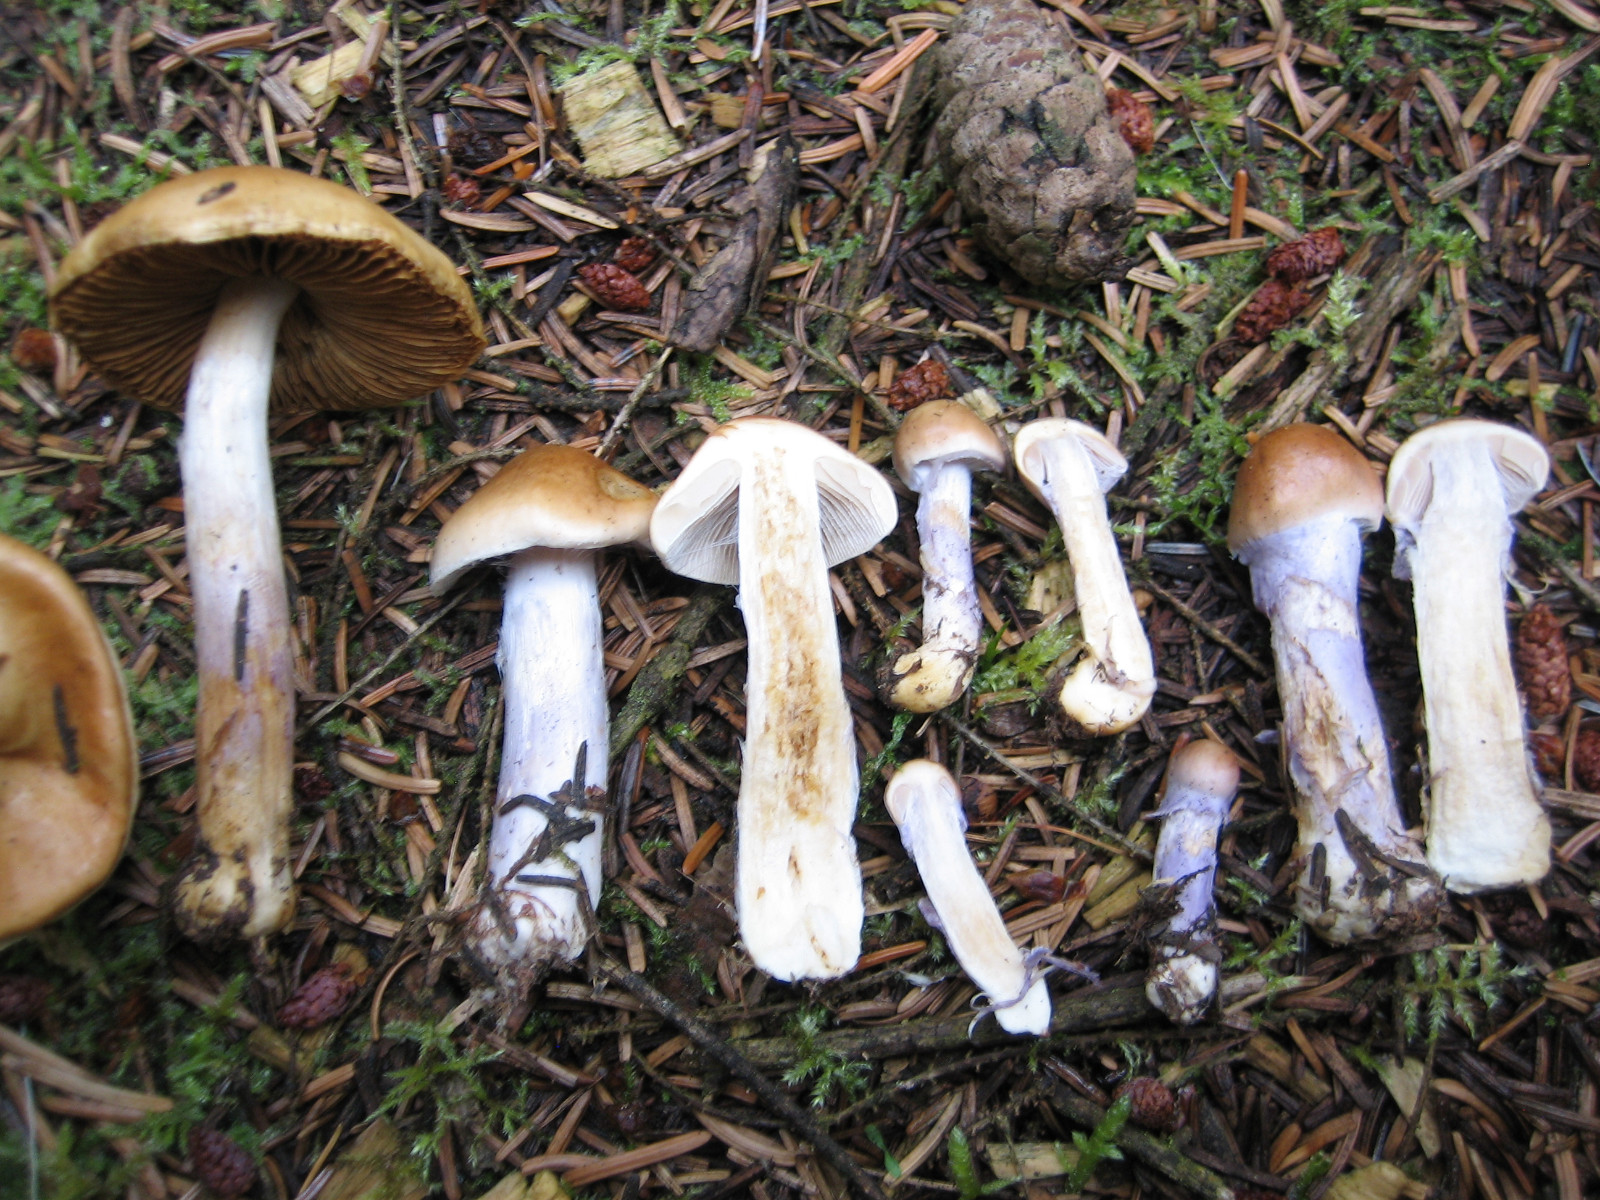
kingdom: Fungi
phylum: Basidiomycota
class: Agaricomycetes
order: Agaricales
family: Cortinariaceae
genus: Cortinarius
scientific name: Cortinarius collinitus
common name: spættet slørhat
